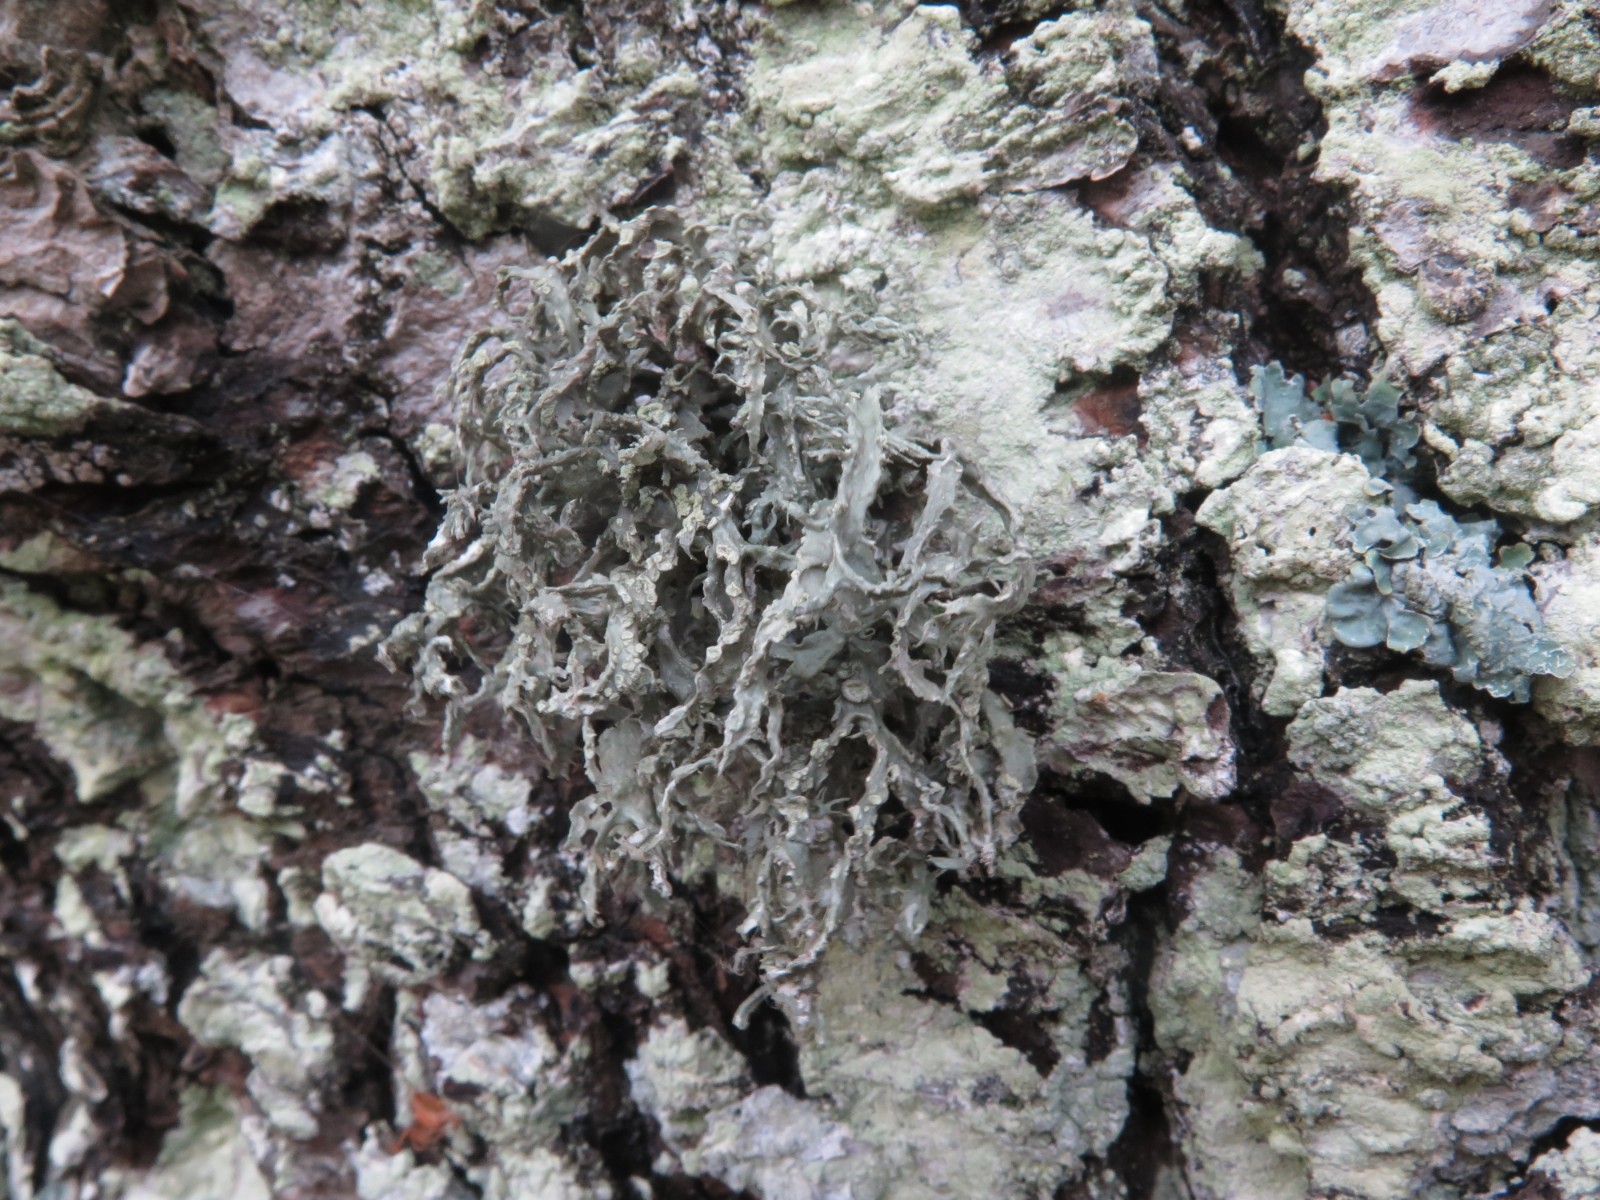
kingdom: Fungi
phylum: Ascomycota
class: Lecanoromycetes
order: Lecanorales
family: Ramalinaceae
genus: Ramalina
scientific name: Ramalina farinacea
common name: melet grenlav
